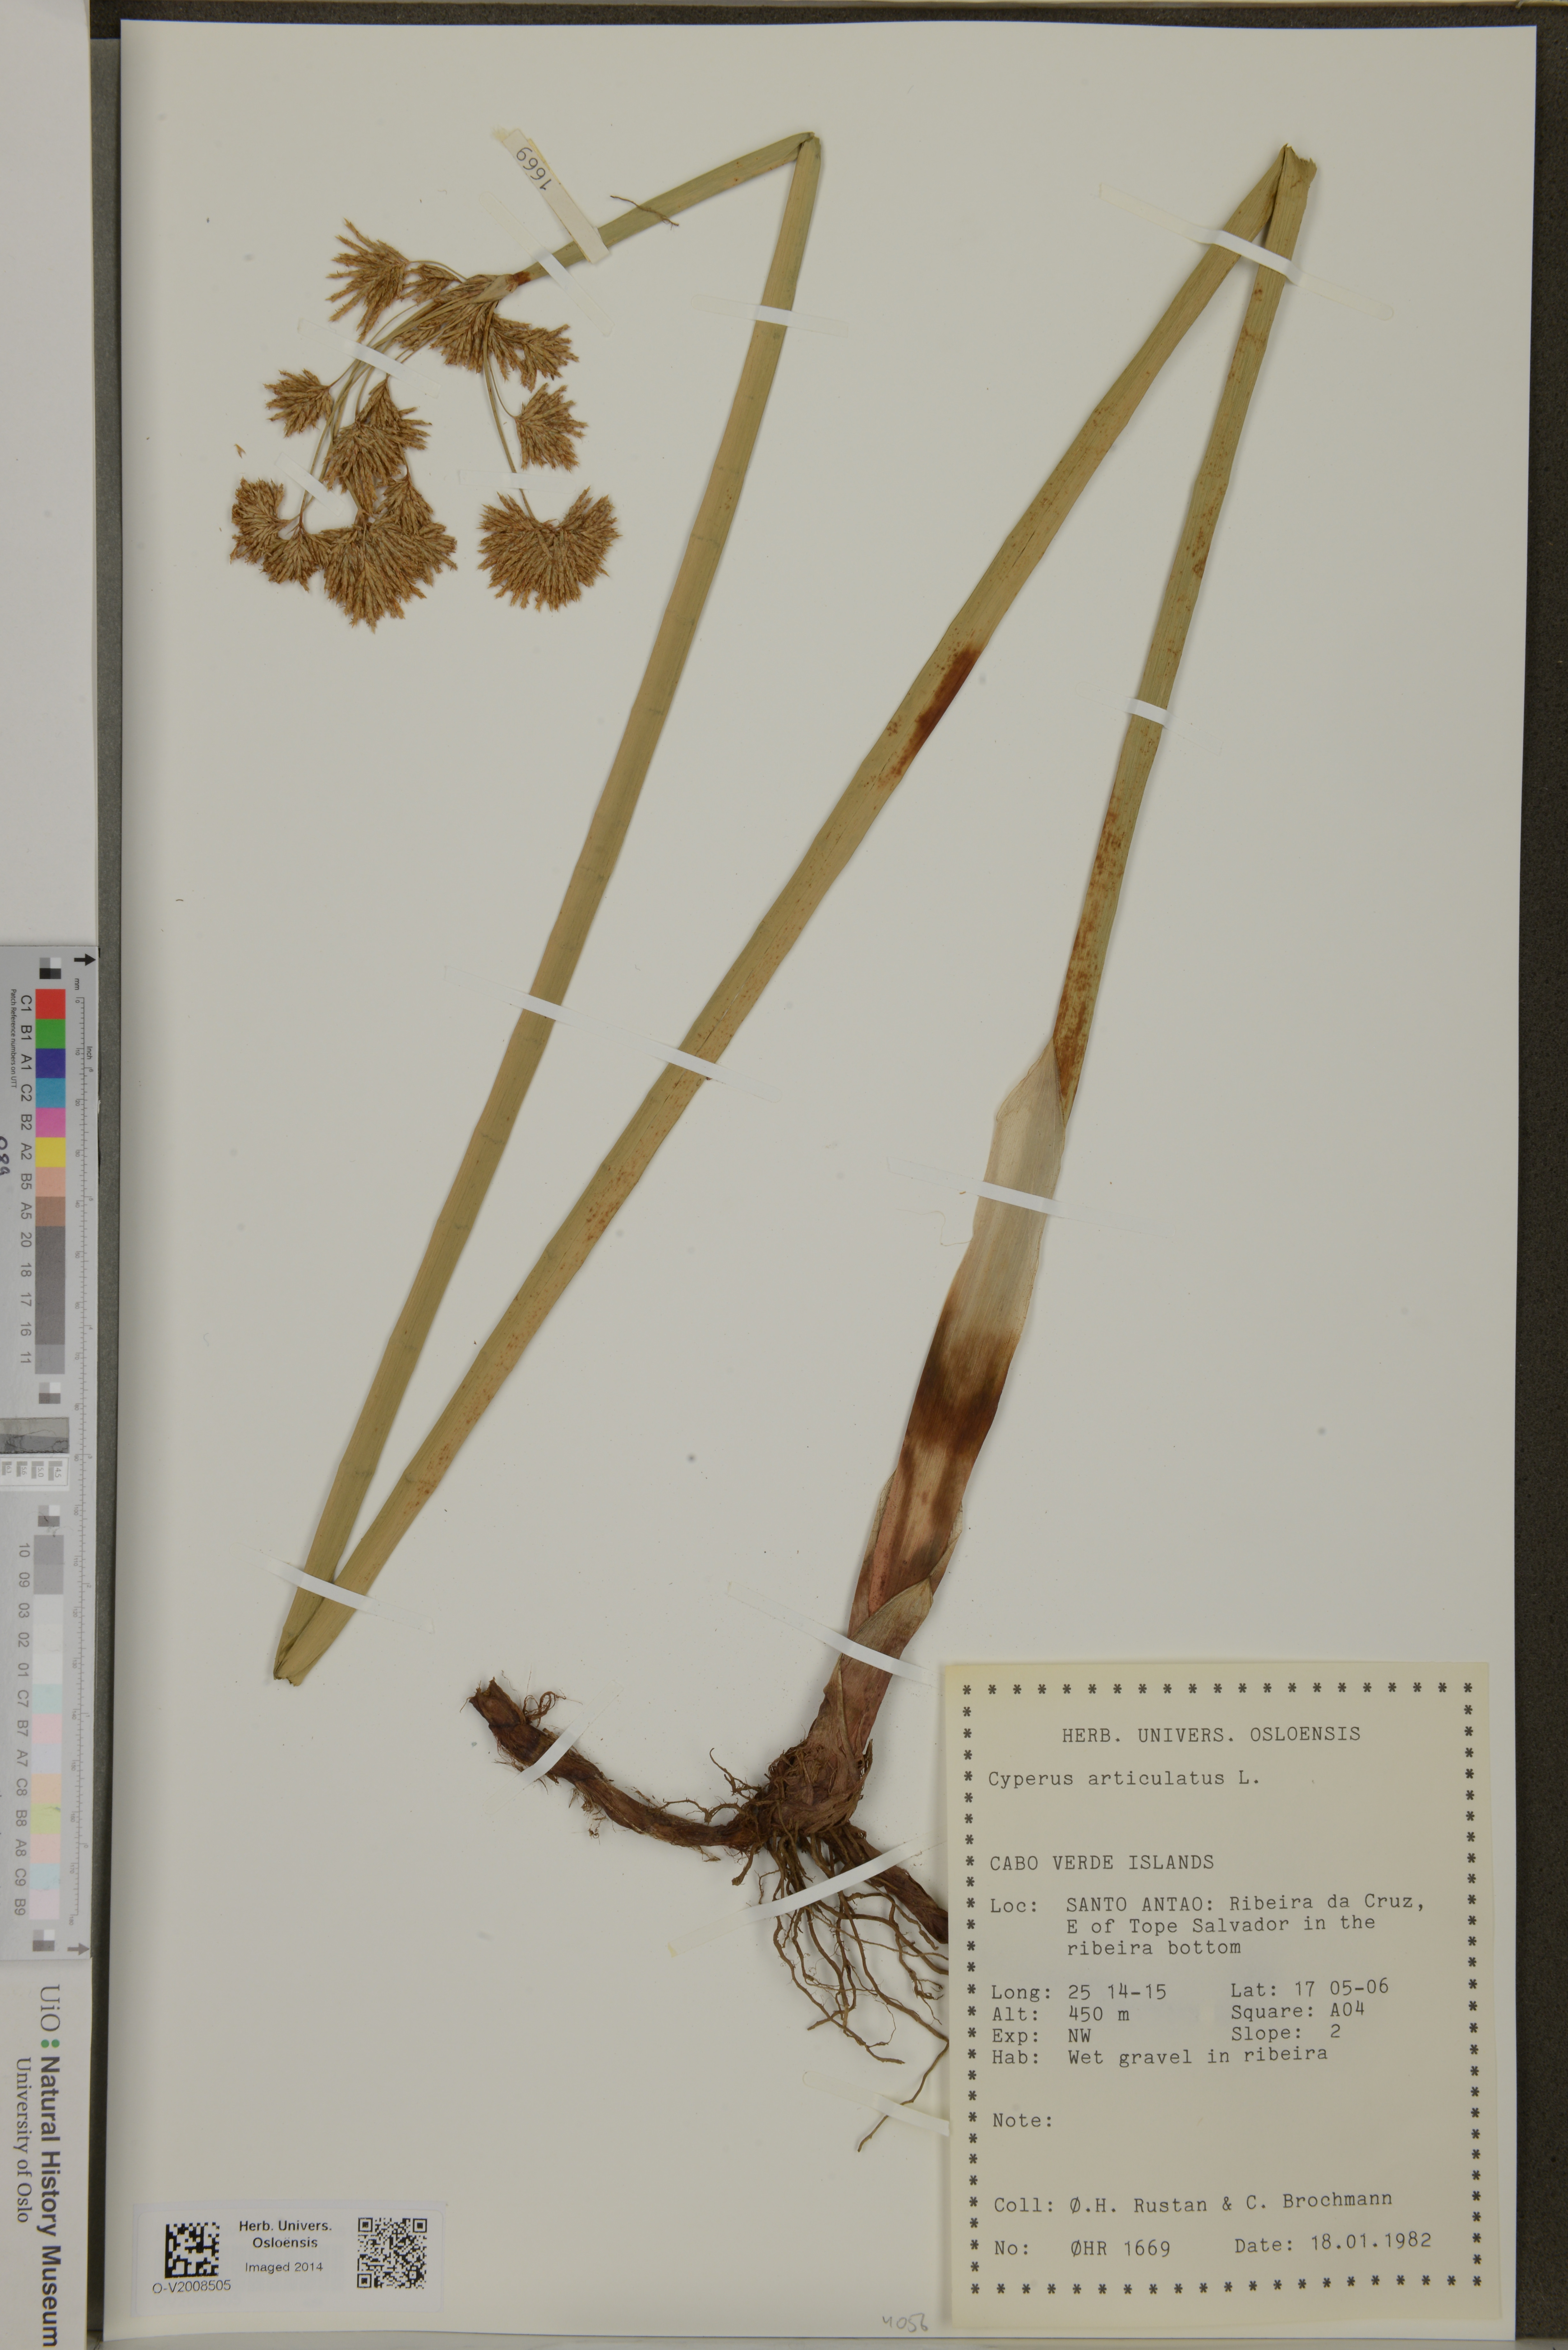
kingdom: Plantae
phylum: Tracheophyta
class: Liliopsida
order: Poales
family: Cyperaceae
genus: Cyperus
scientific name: Cyperus articulatus
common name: Jointed flatsedge
